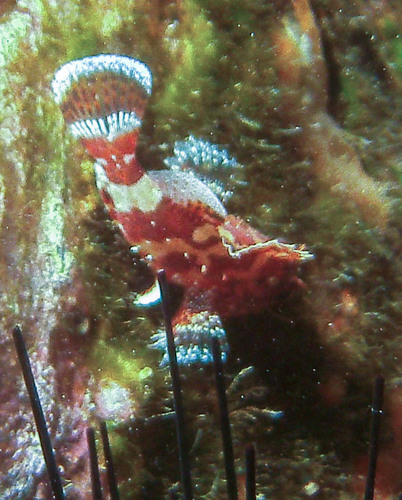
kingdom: Animalia
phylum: Chordata
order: Scorpaeniformes
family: Scorpaenidae
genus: Scorpaena
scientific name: Scorpaena maderensis
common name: Madeira rockfish
